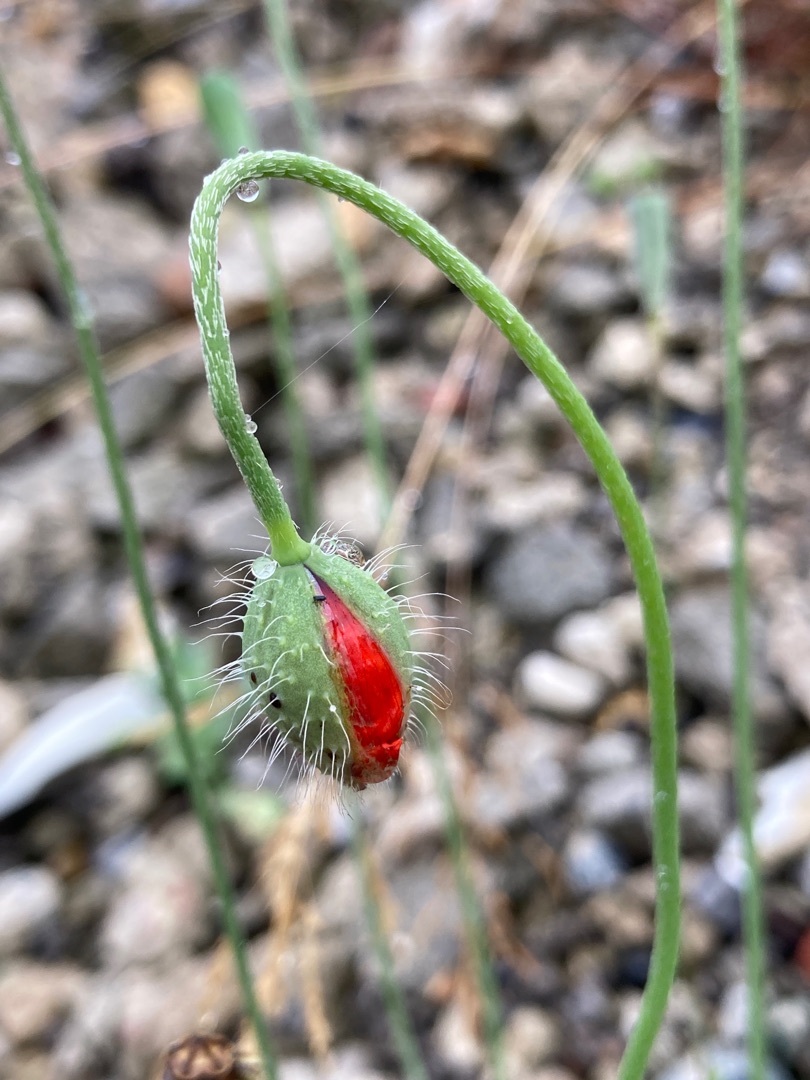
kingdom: Plantae
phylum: Tracheophyta
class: Magnoliopsida
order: Ranunculales
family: Papaveraceae
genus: Papaver
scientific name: Papaver dubium
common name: Gærde-valmue
